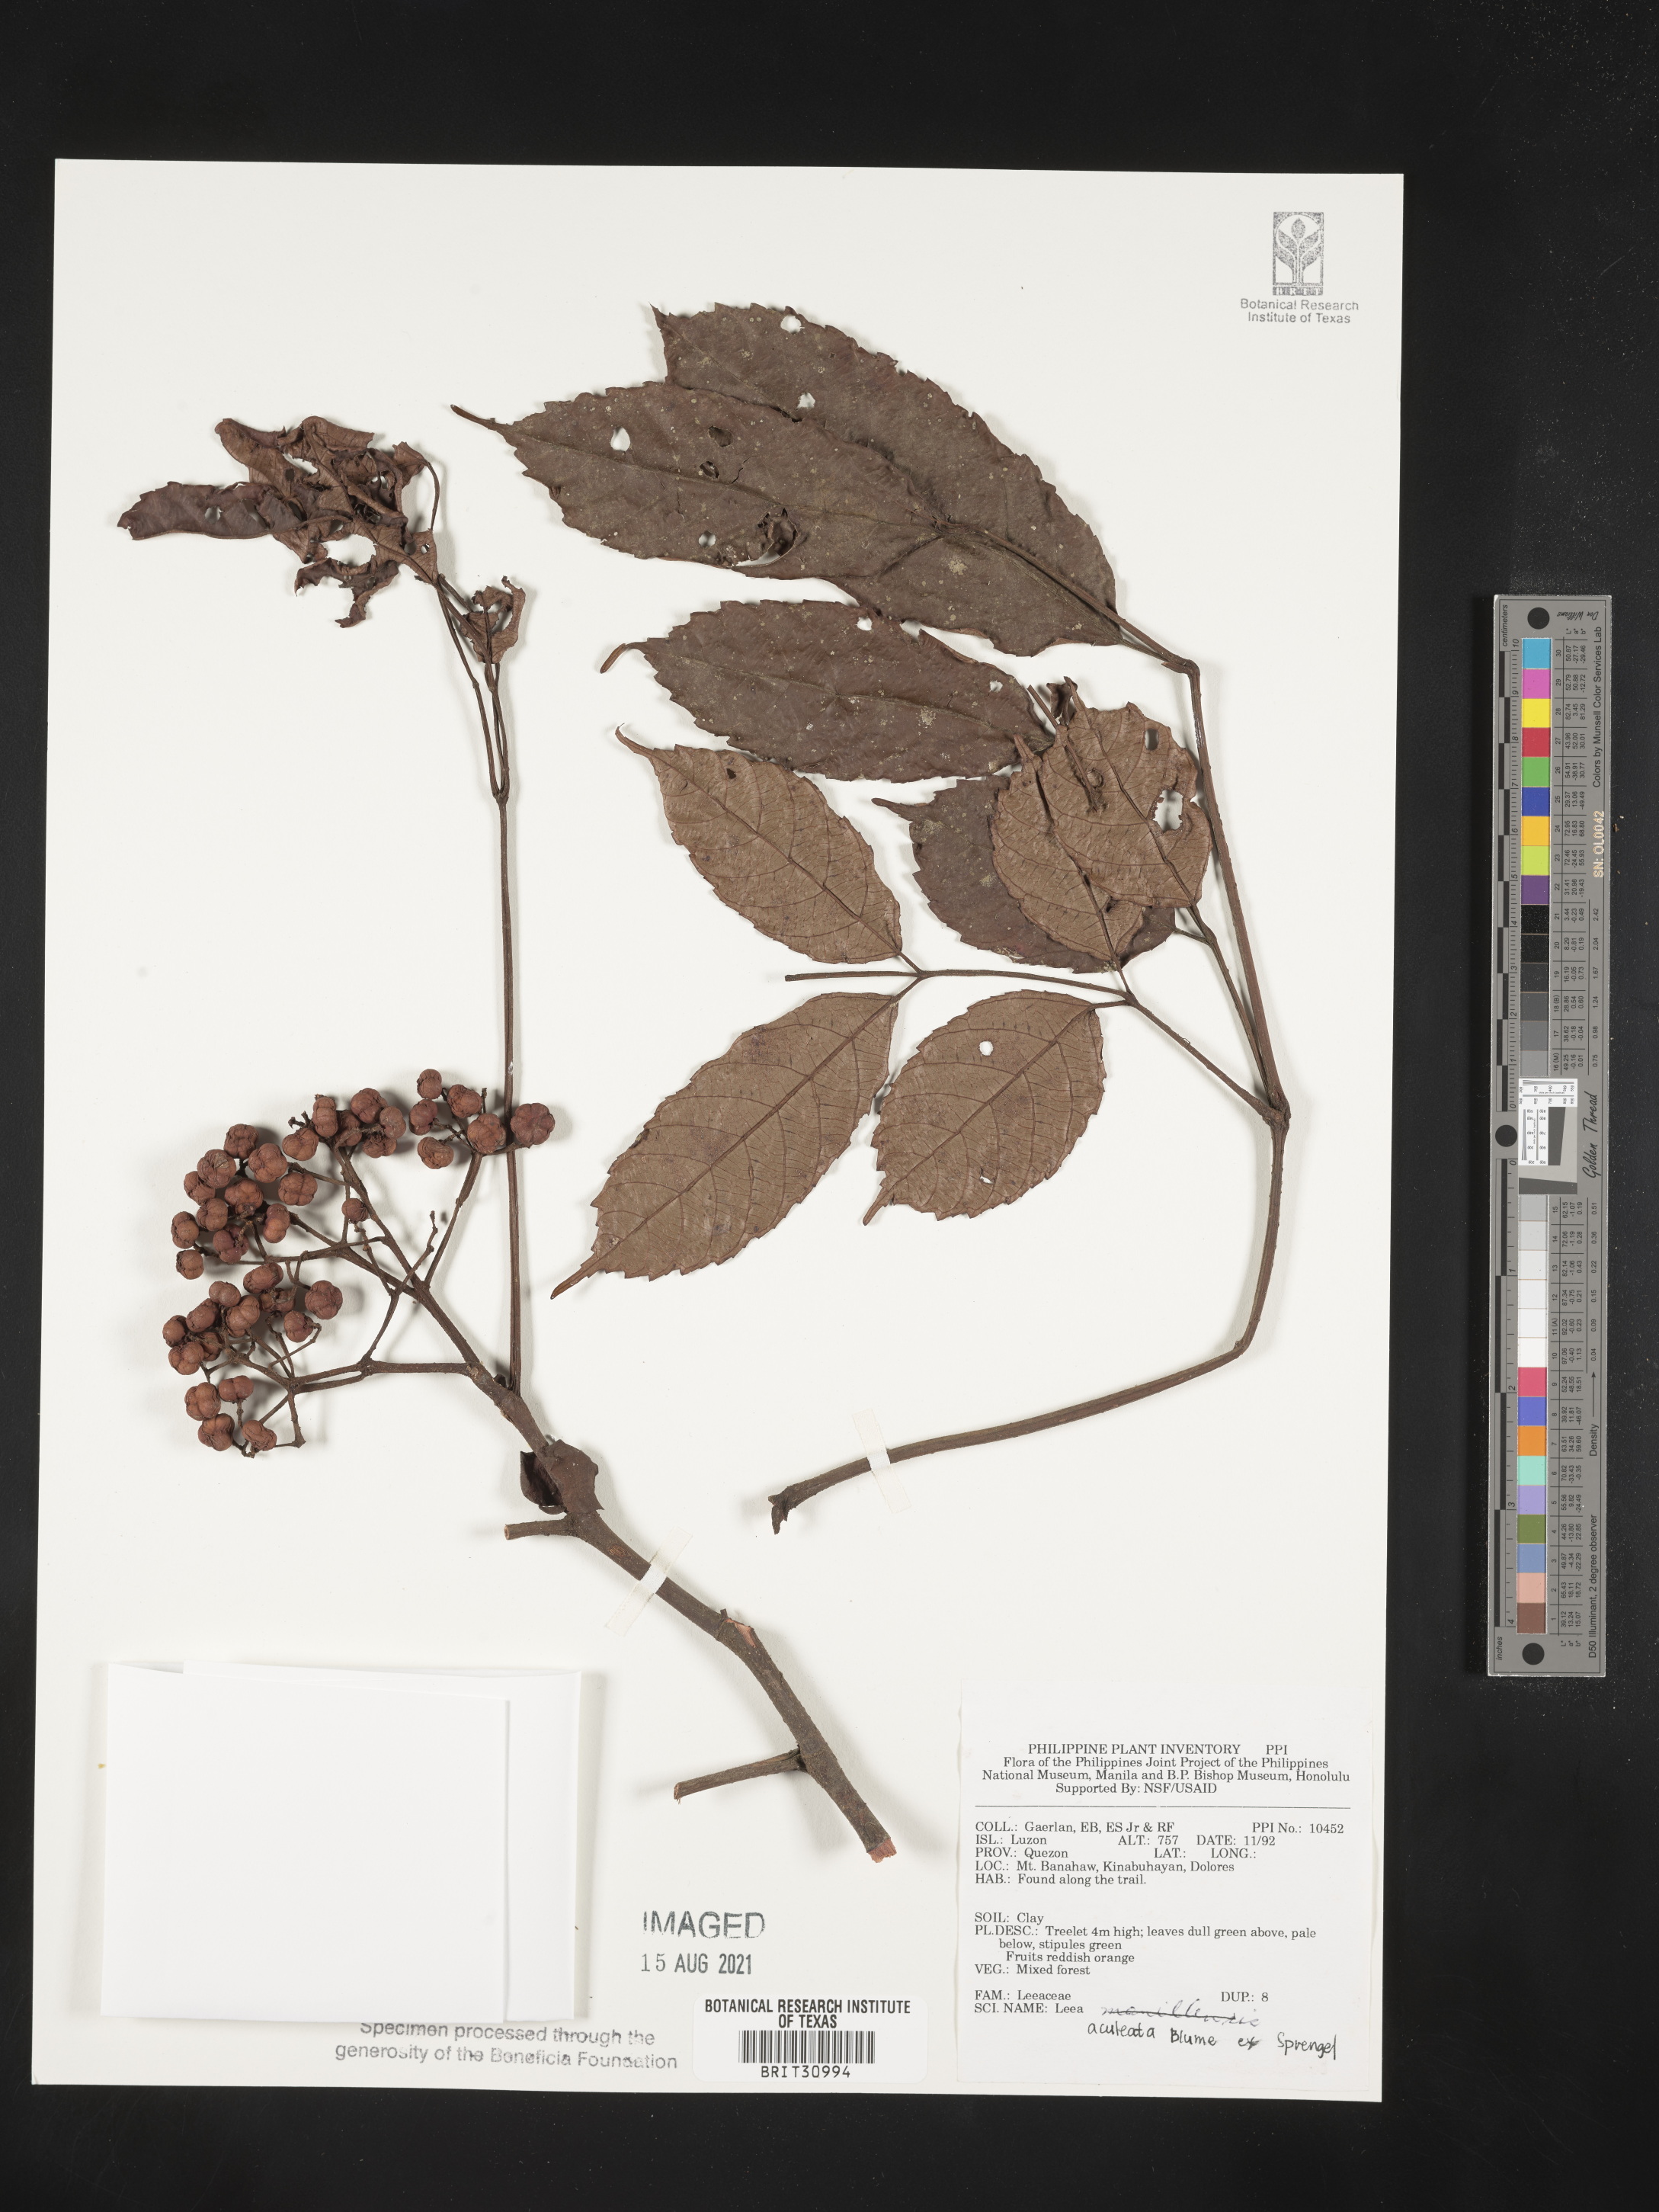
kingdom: Plantae
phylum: Tracheophyta
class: Magnoliopsida
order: Vitales
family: Vitaceae
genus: Leea
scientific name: Leea aculeata
